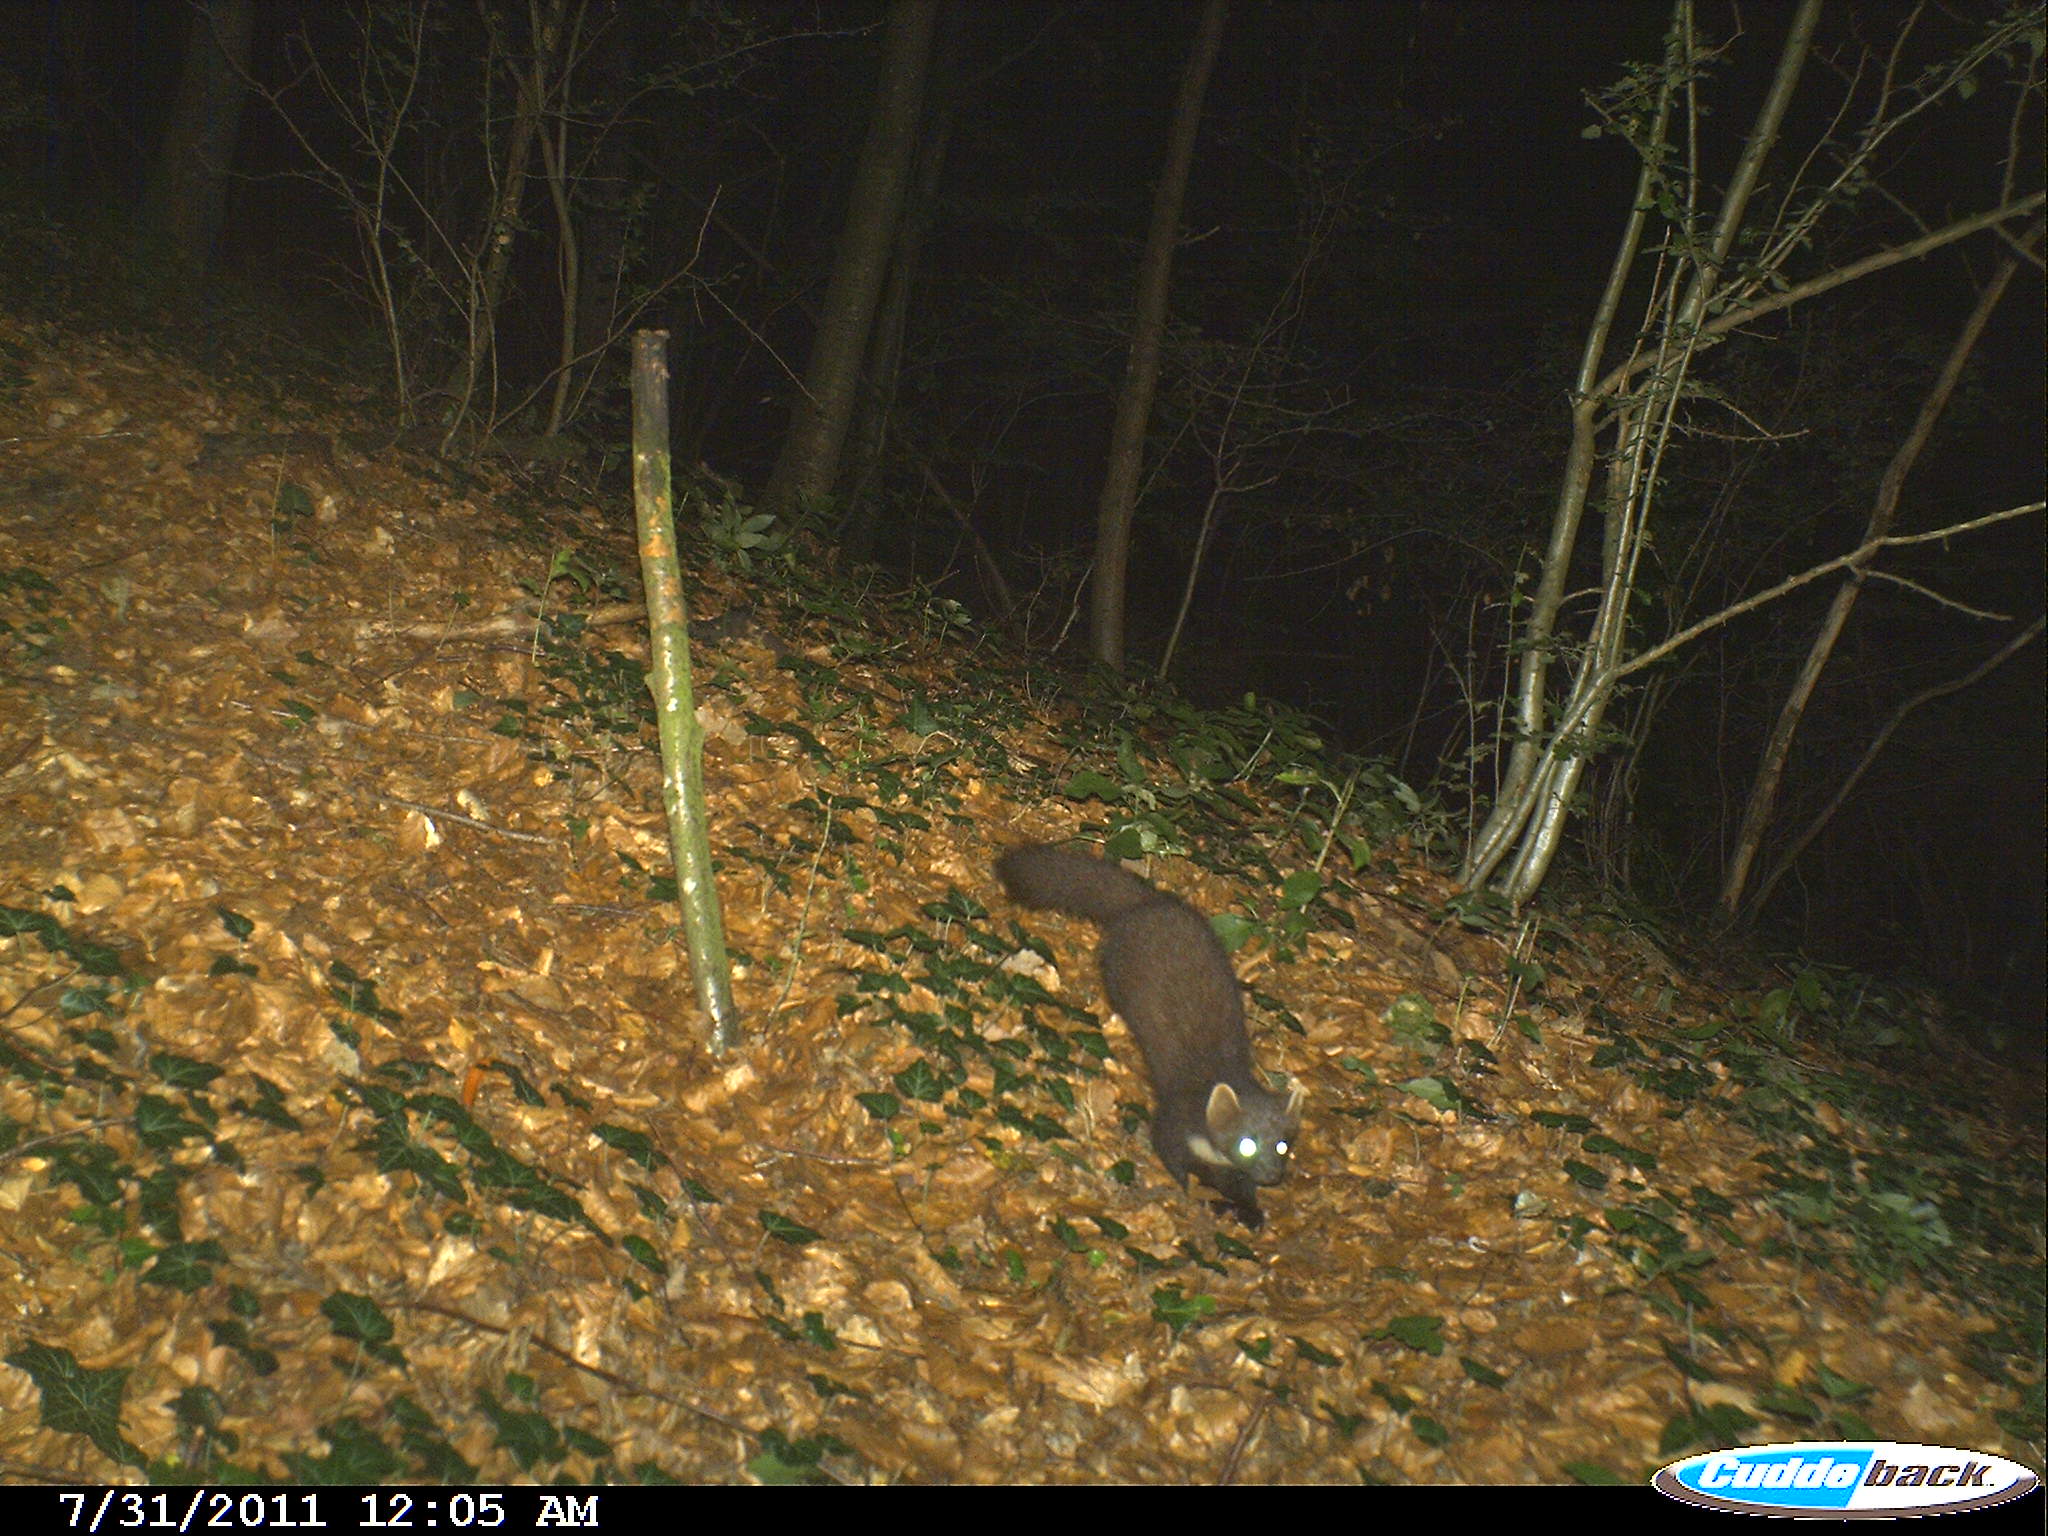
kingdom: Animalia
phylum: Chordata
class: Mammalia
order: Carnivora
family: Mustelidae
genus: Martes
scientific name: Martes martes
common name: European pine marten
